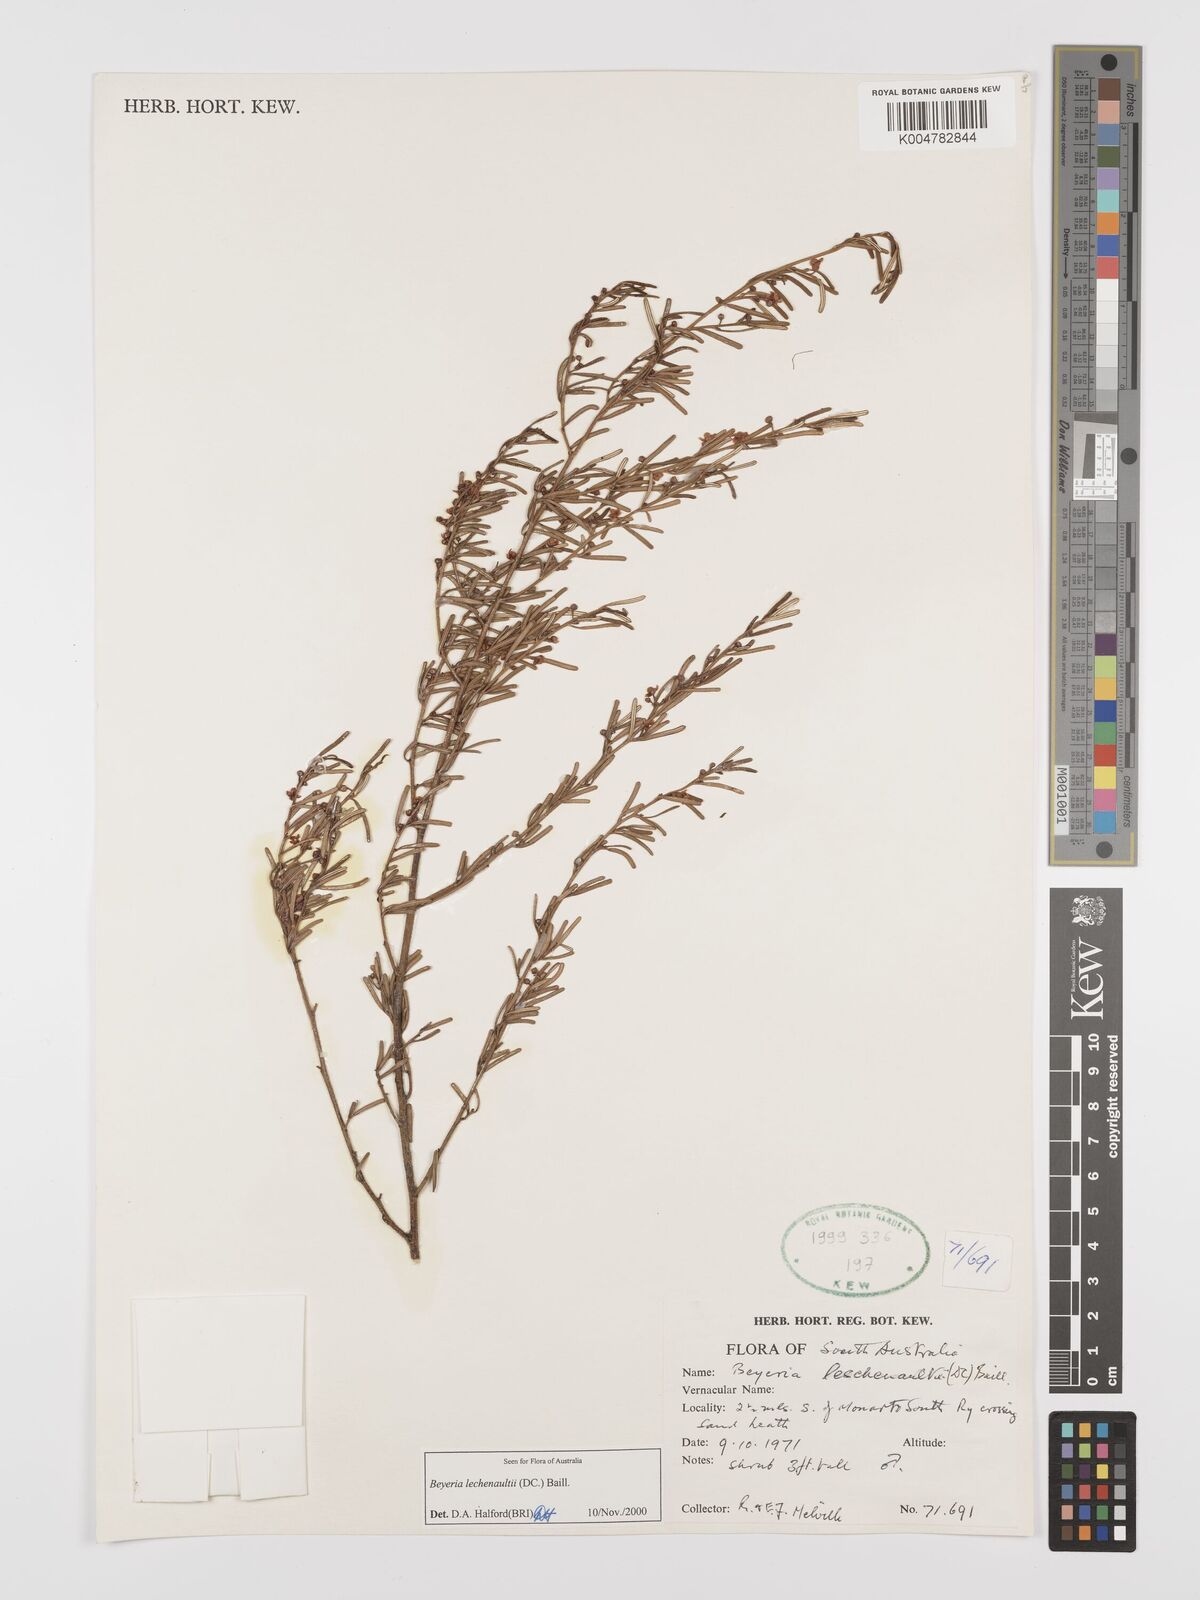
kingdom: Plantae
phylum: Tracheophyta
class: Magnoliopsida
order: Malpighiales
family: Euphorbiaceae
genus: Beyeria
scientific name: Beyeria lechenaultii
